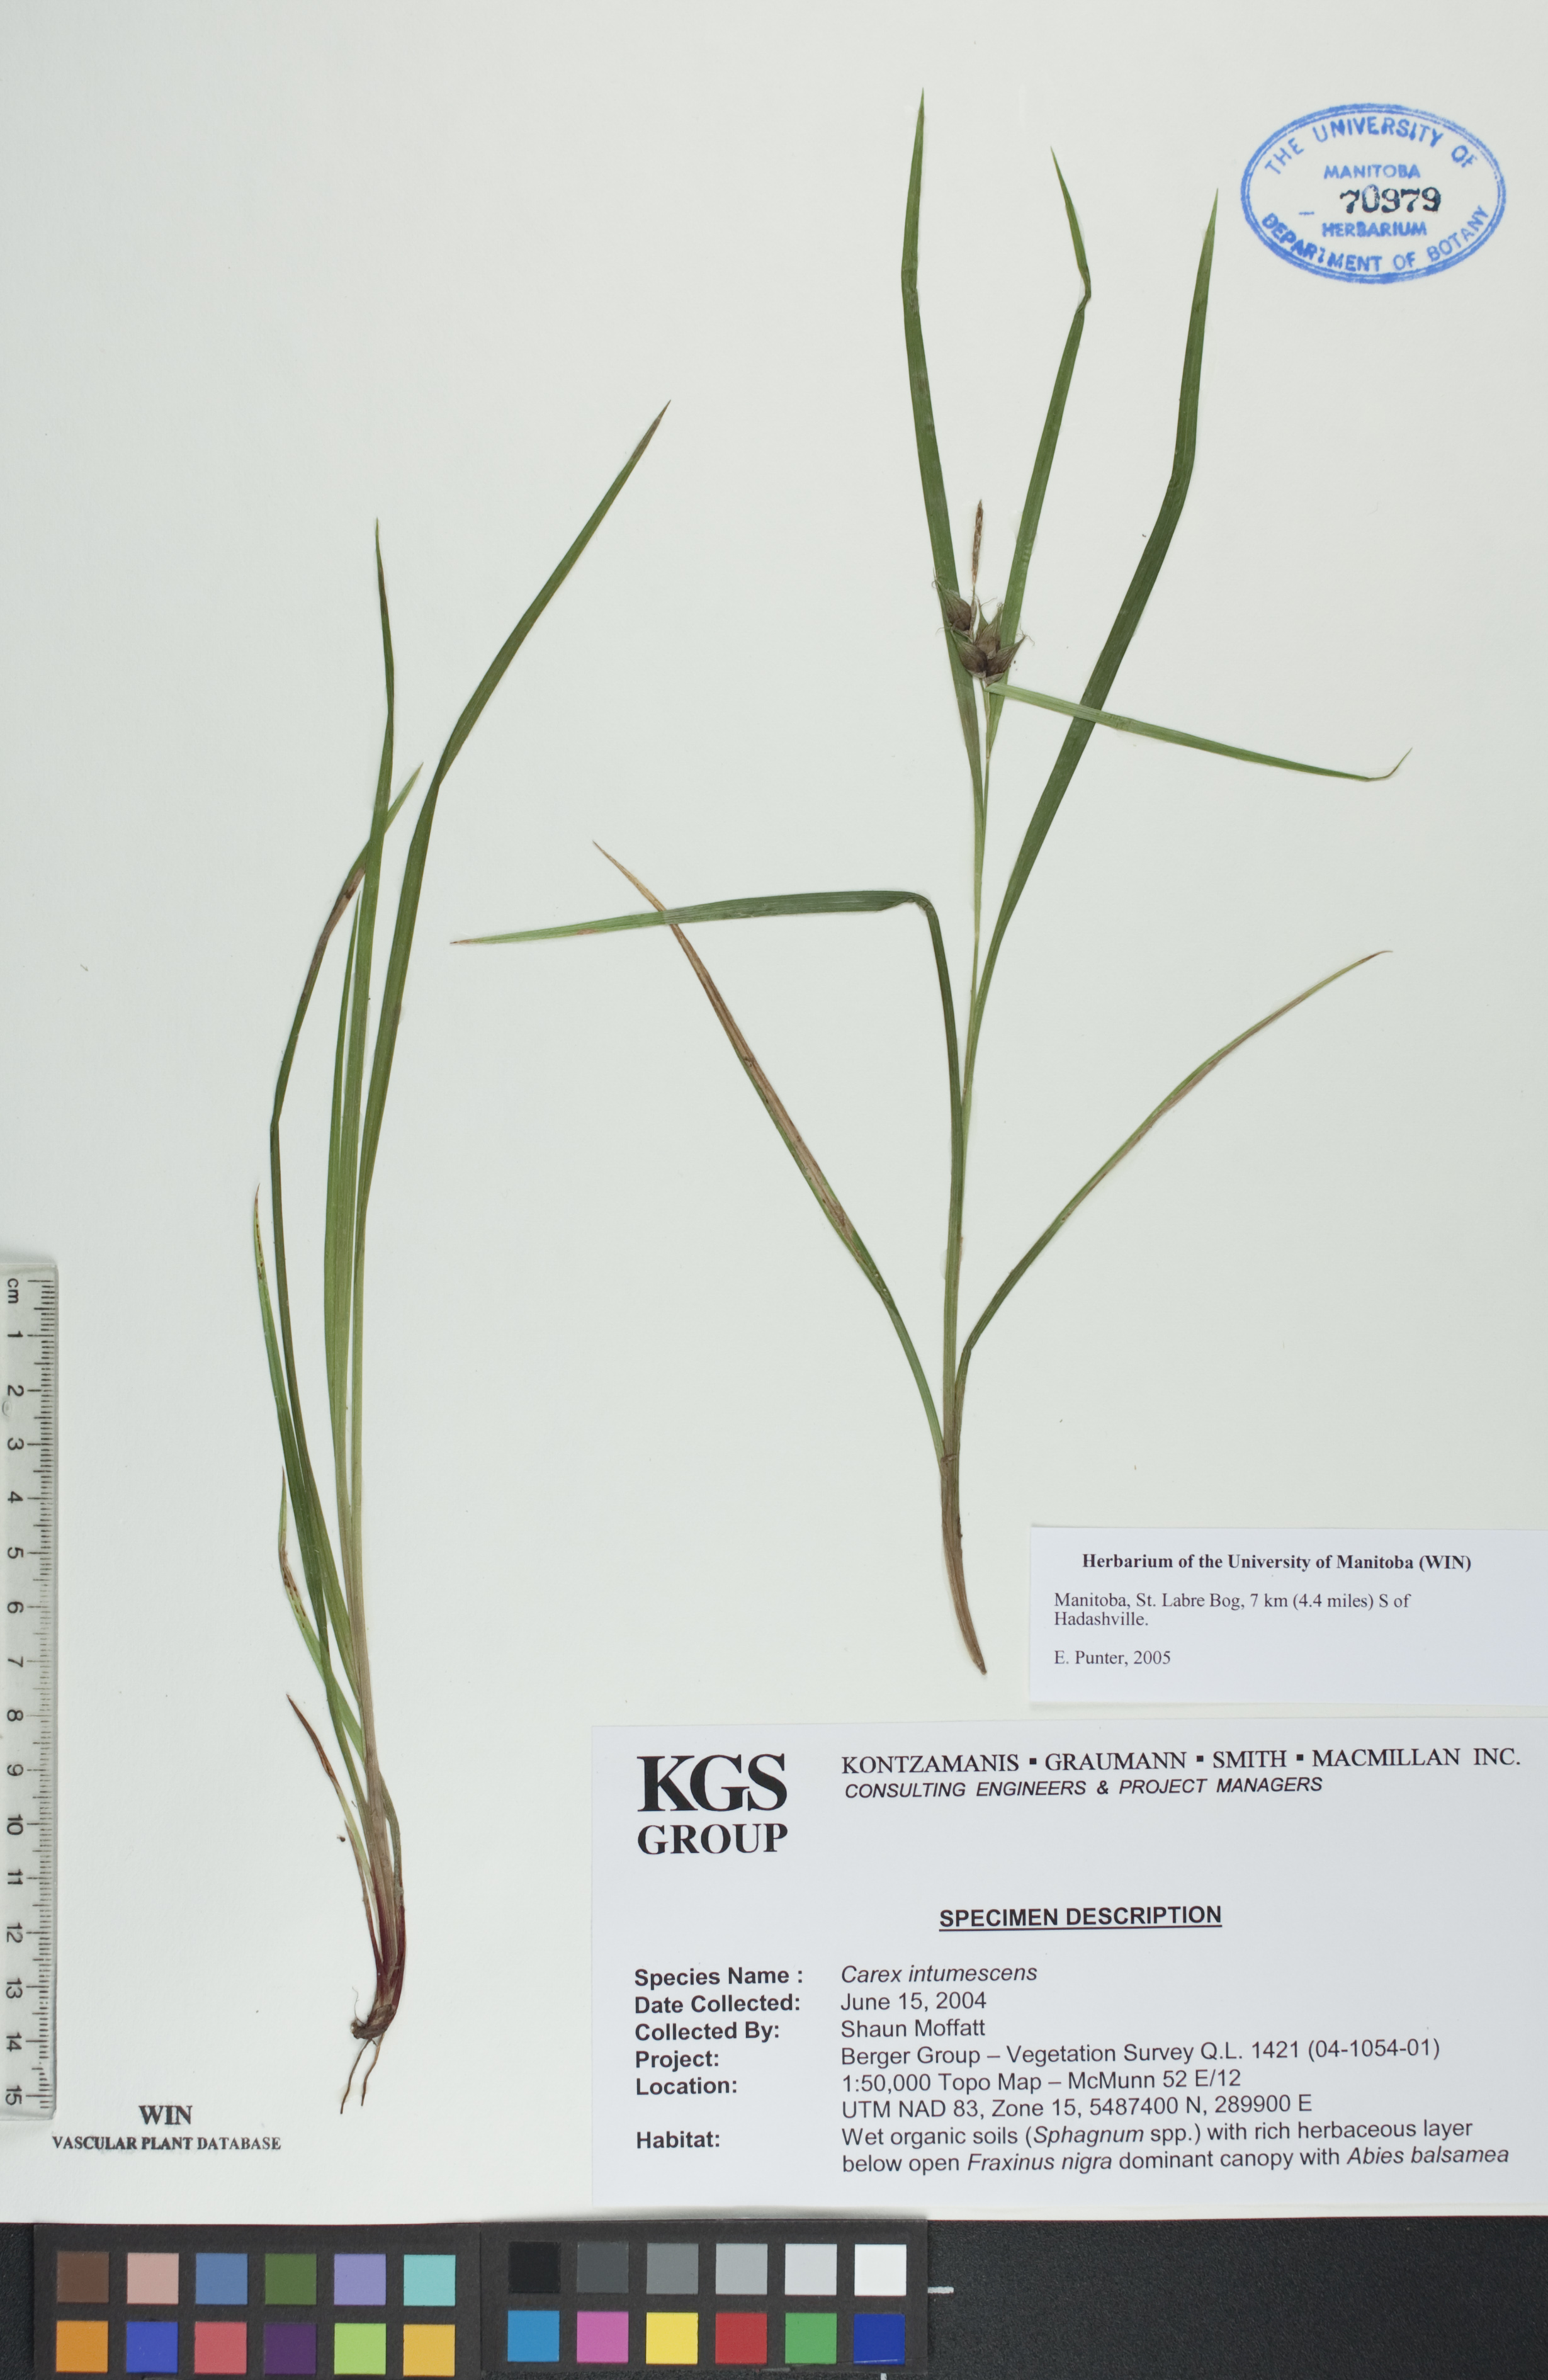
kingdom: Plantae
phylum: Tracheophyta
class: Liliopsida
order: Poales
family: Cyperaceae
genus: Carex
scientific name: Carex intumescens
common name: Greater bladder sedge
